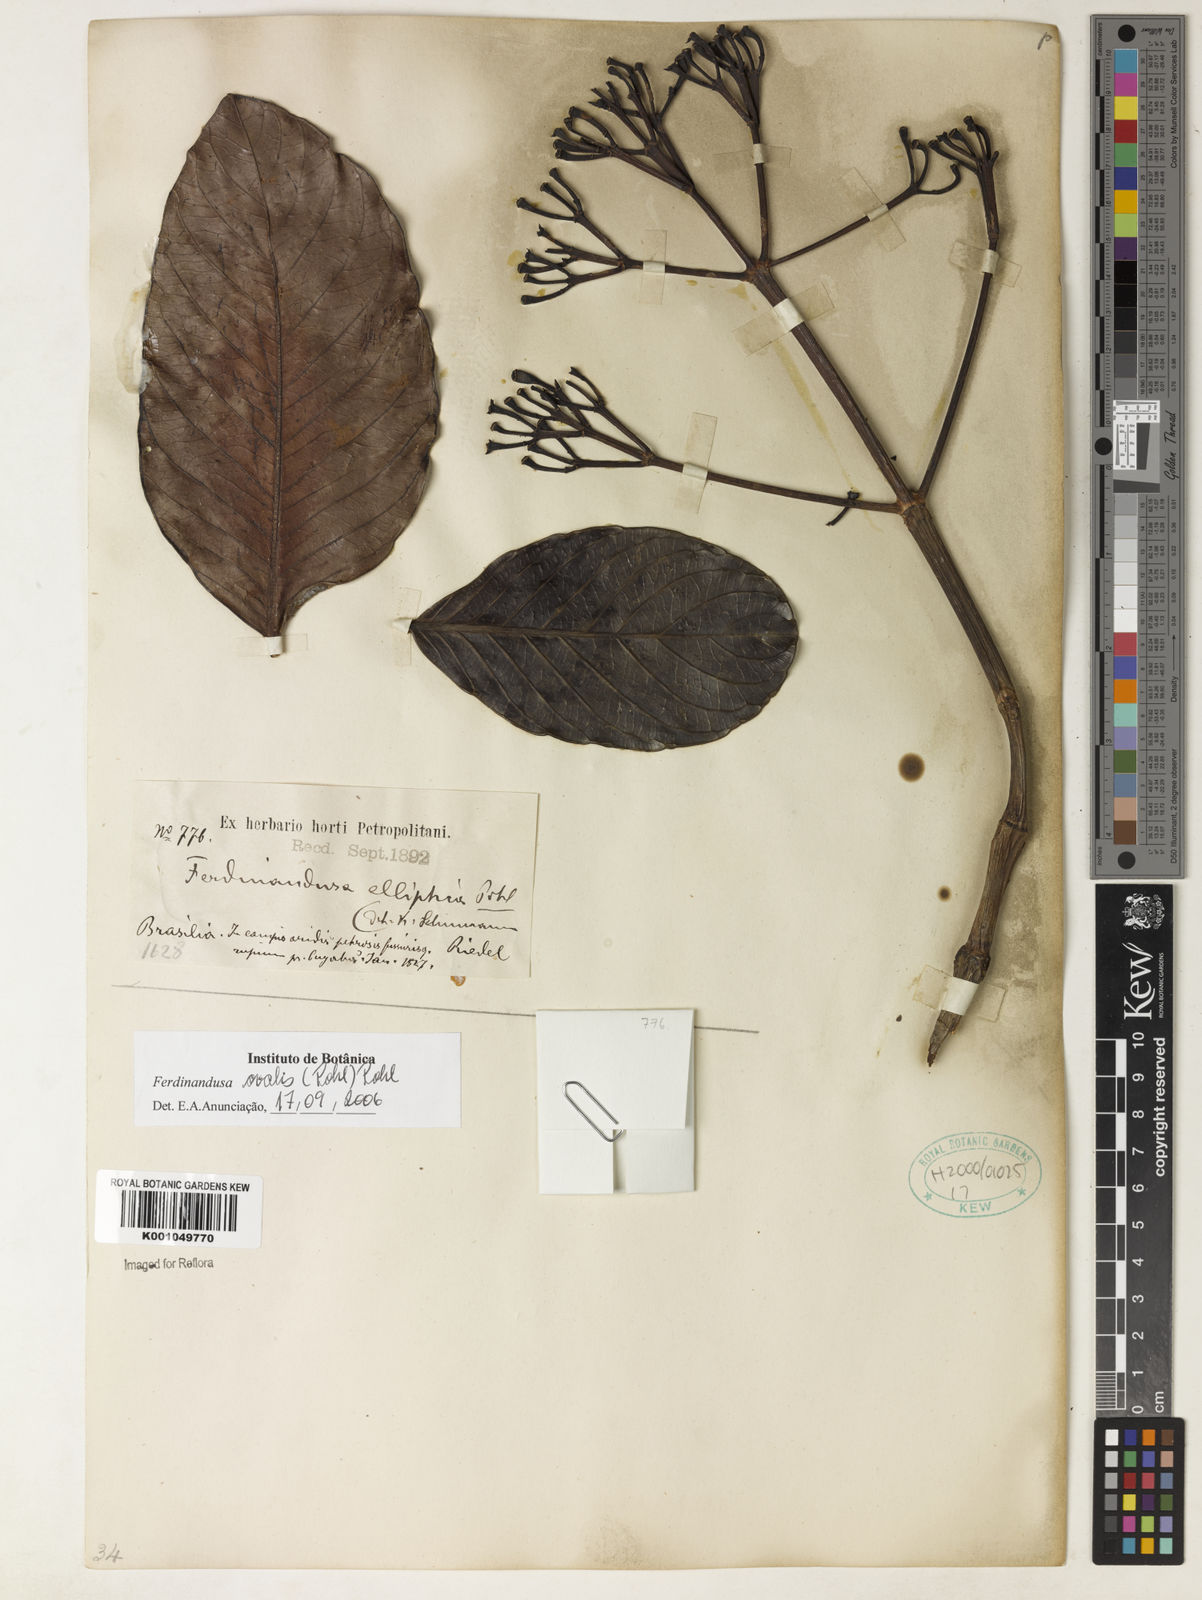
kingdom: Plantae
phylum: Tracheophyta
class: Magnoliopsida
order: Gentianales
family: Rubiaceae
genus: Ferdinandusa
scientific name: Ferdinandusa elliptica
